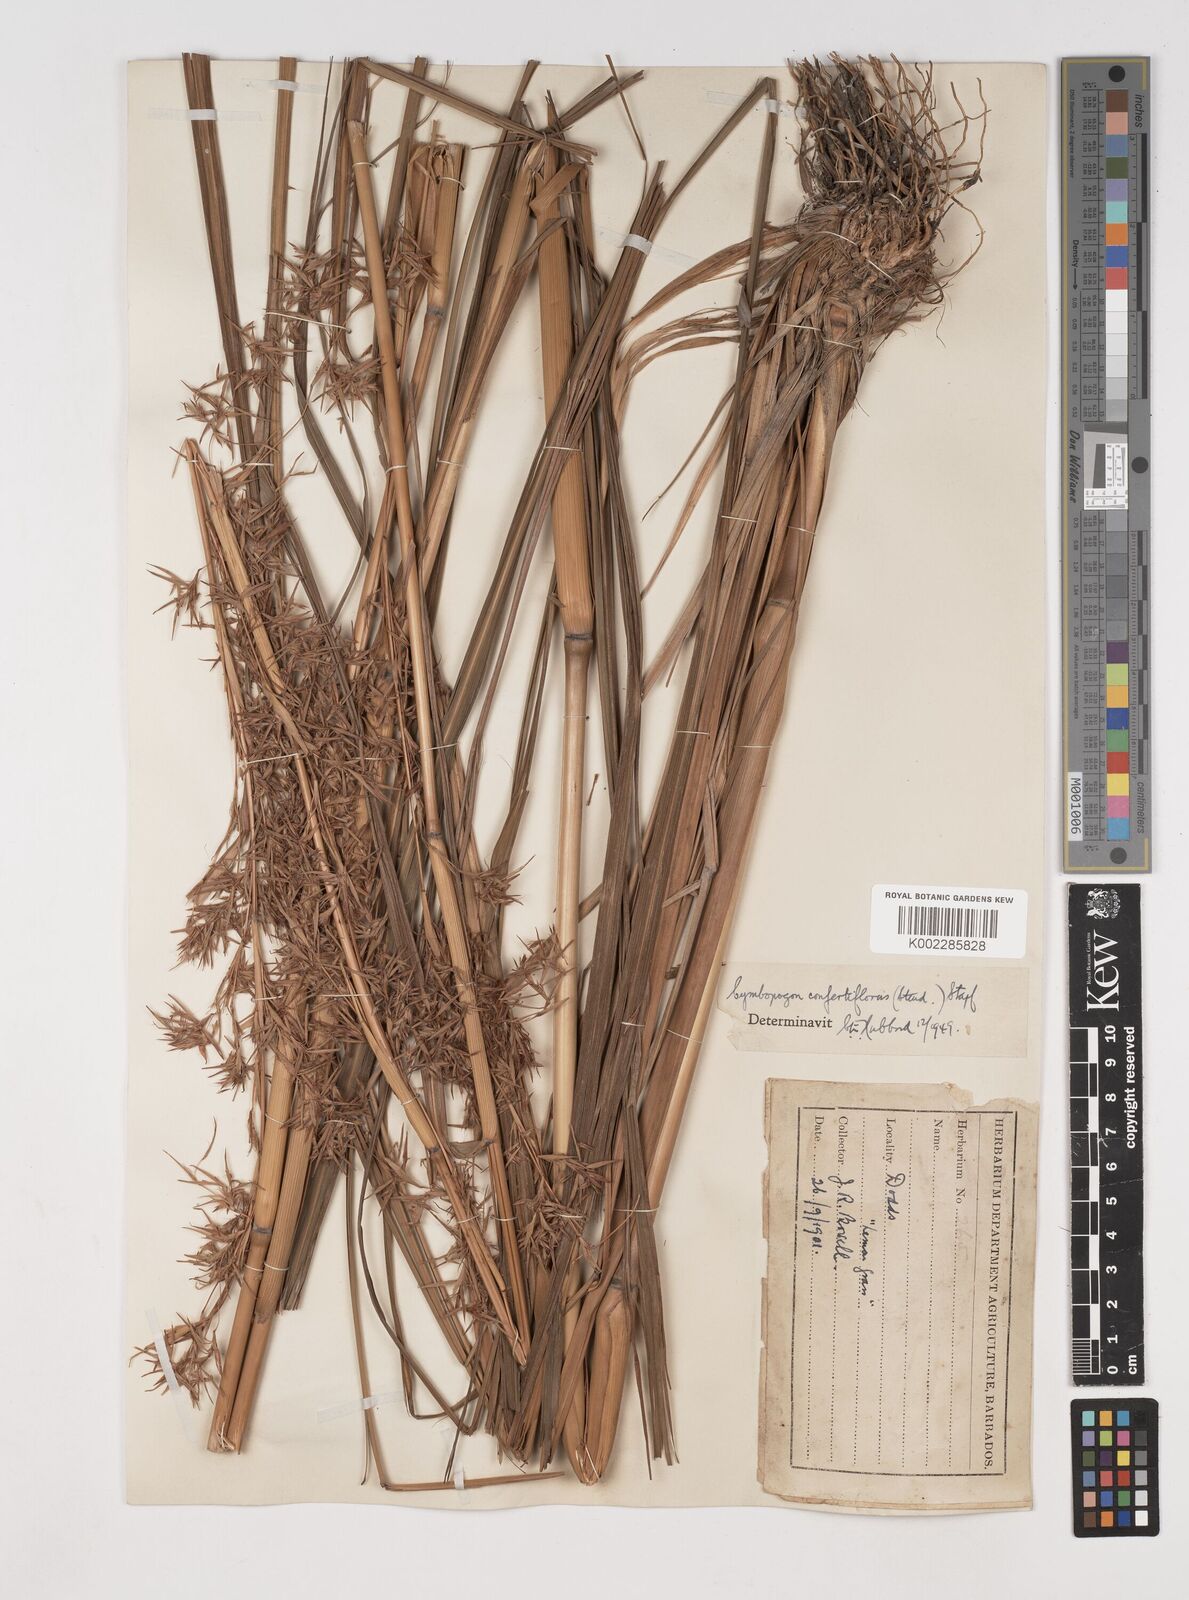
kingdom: Plantae
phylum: Tracheophyta
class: Liliopsida
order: Poales
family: Poaceae
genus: Cymbopogon
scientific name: Cymbopogon winterianus
